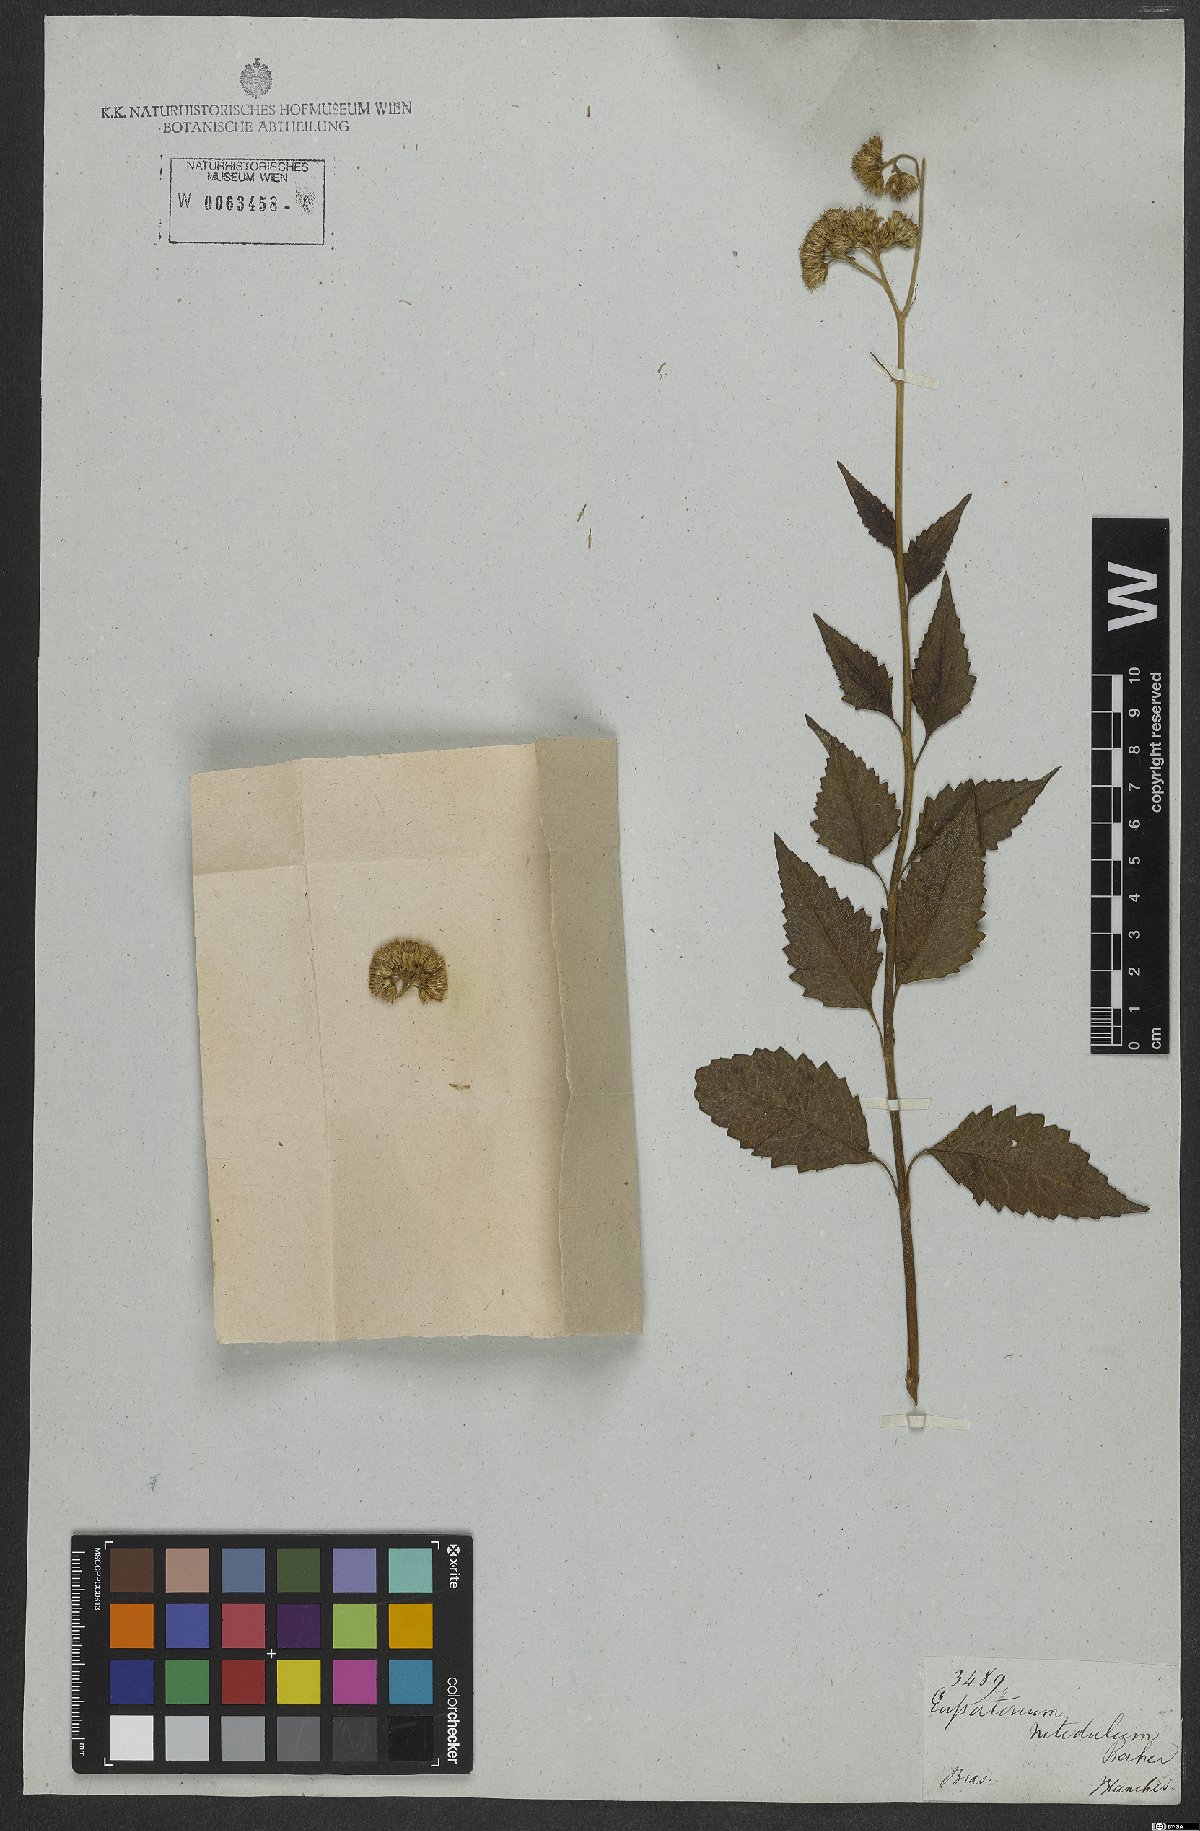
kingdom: Plantae
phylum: Tracheophyta
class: Magnoliopsida
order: Asterales
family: Asteraceae
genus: Prolobus
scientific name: Prolobus nitidulus
